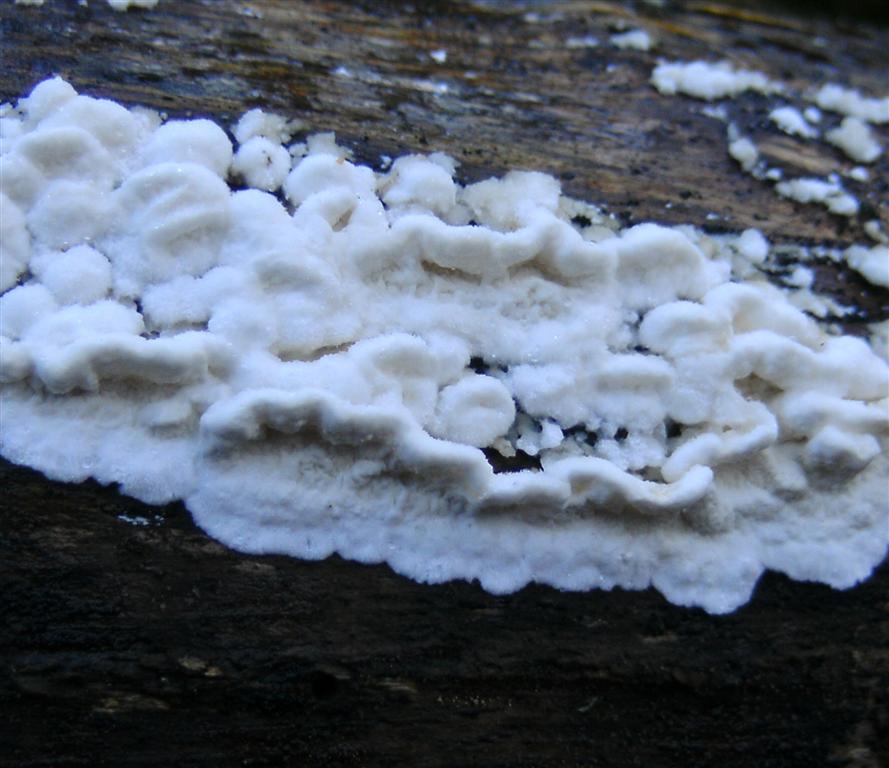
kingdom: Fungi
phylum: Basidiomycota
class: Agaricomycetes
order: Polyporales
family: Irpicaceae
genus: Byssomerulius
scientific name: Byssomerulius corium
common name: læder-åresvamp
